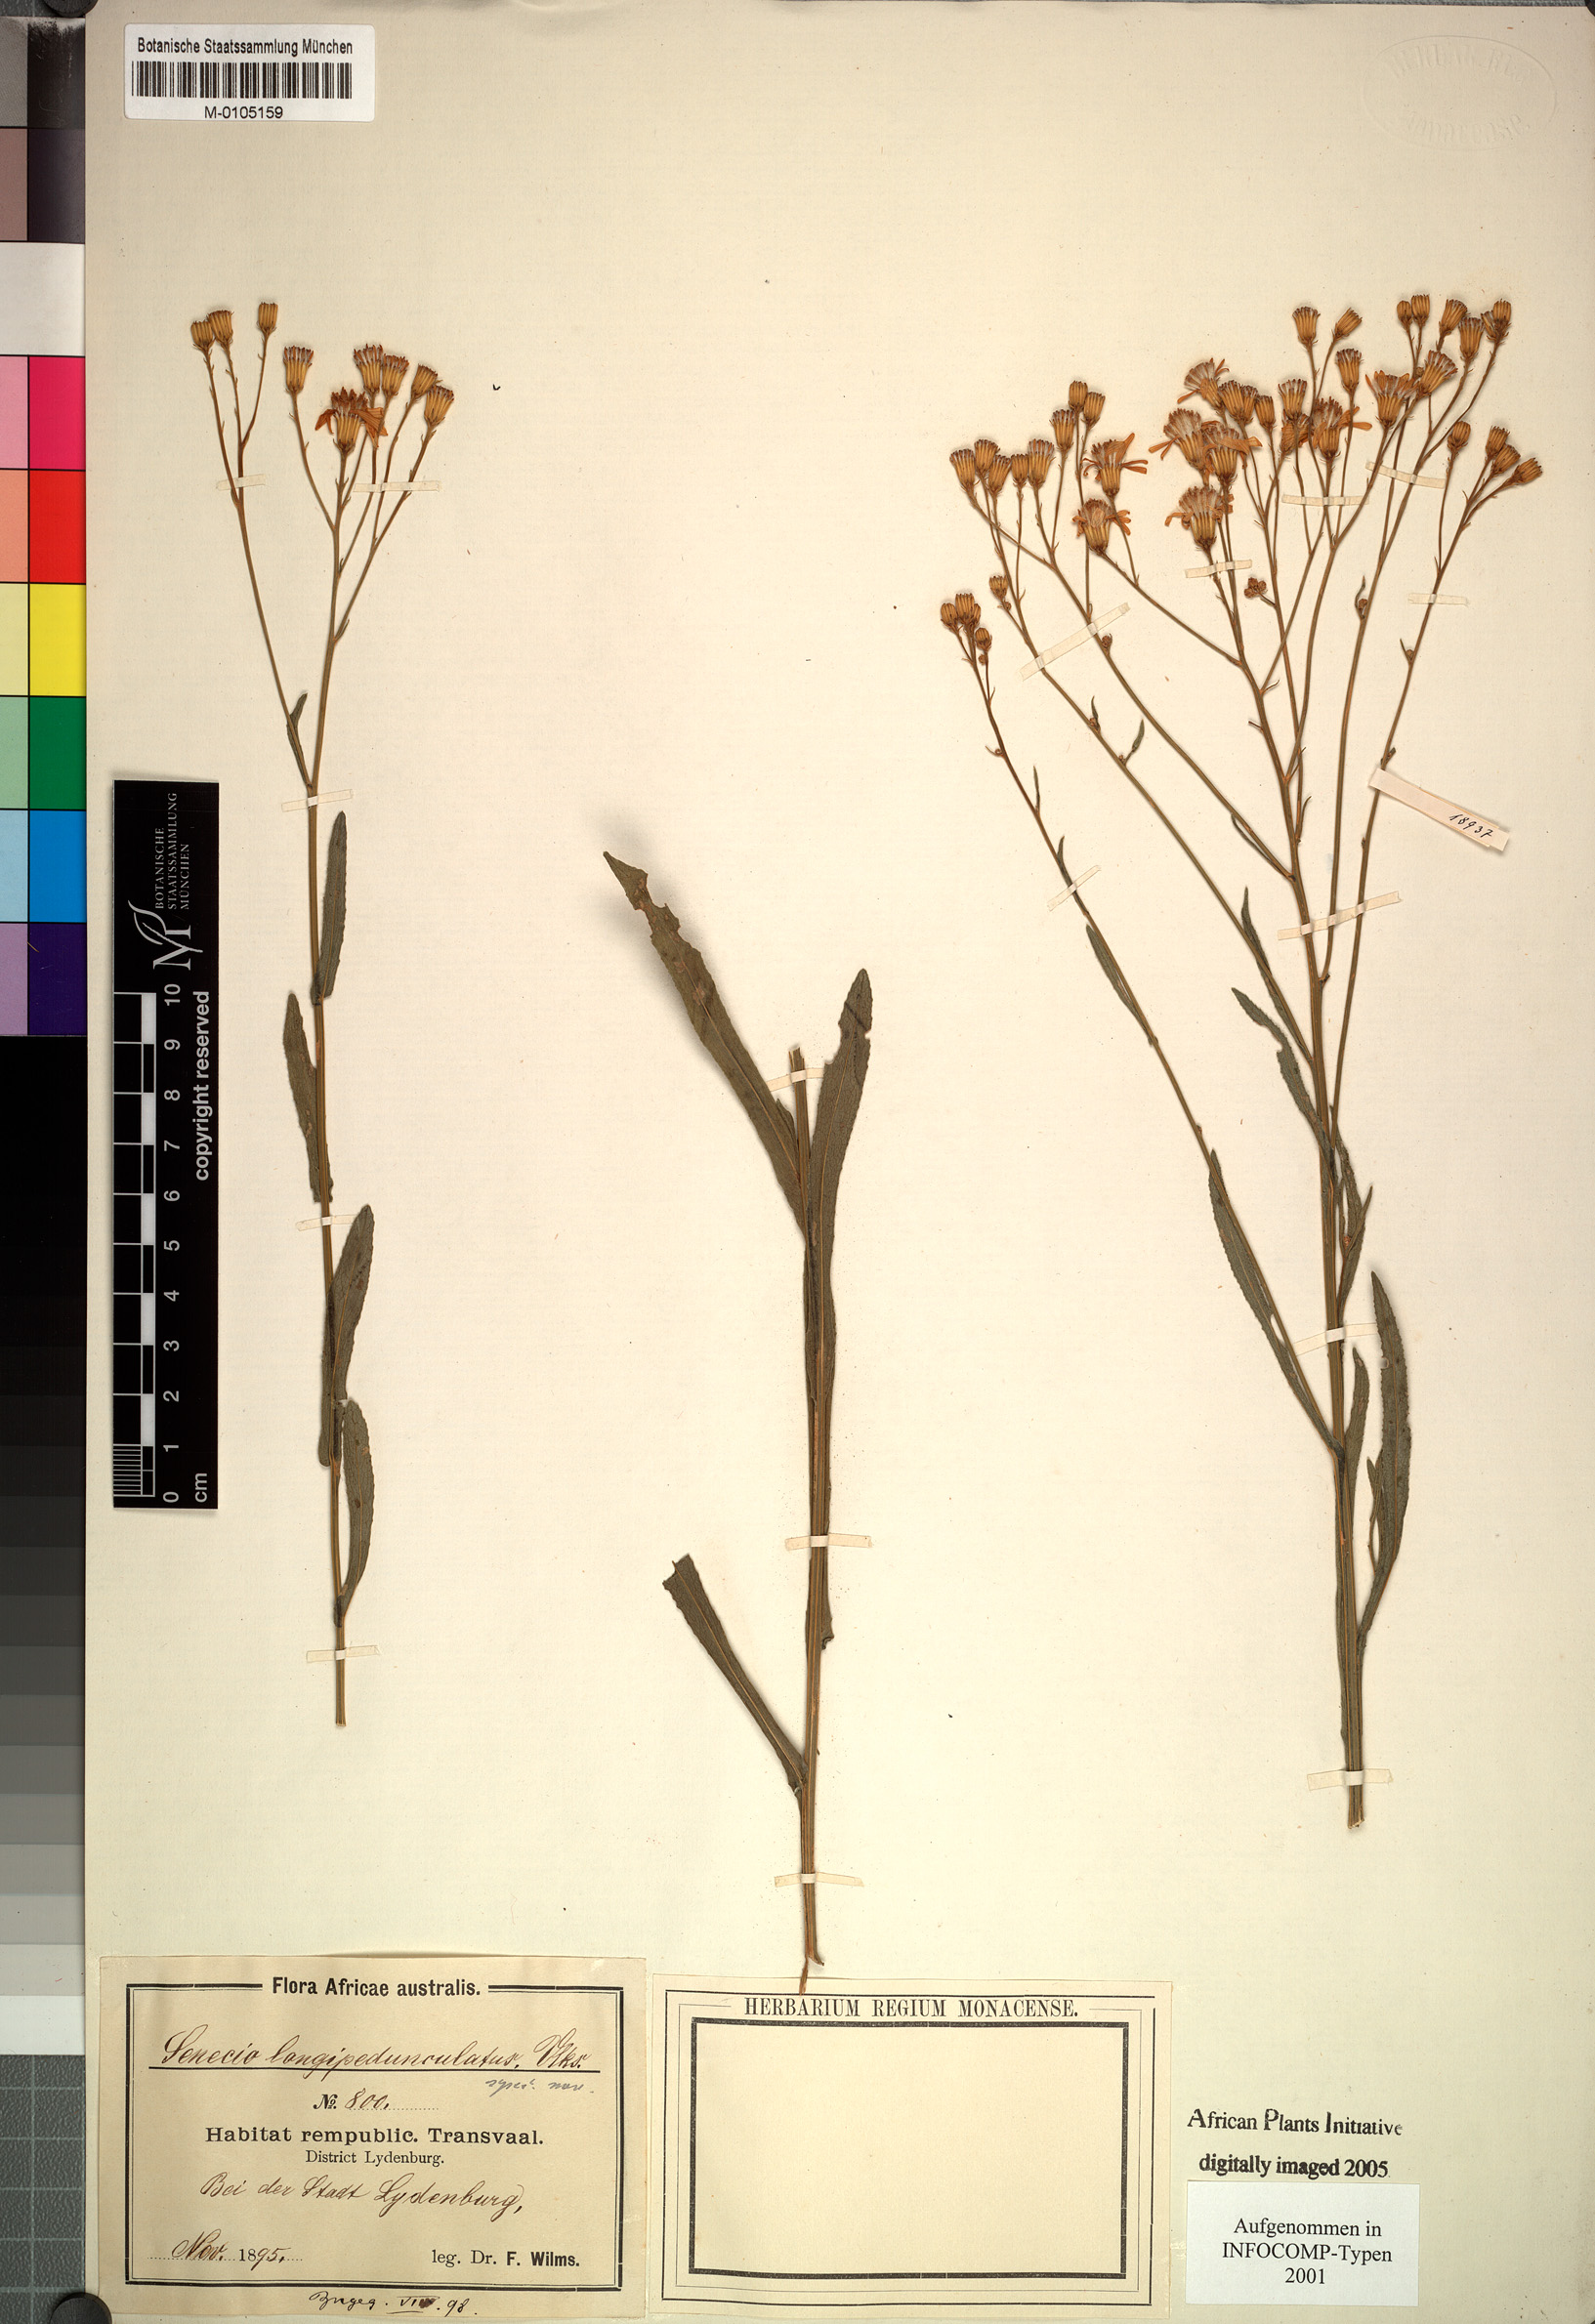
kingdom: Plantae
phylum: Tracheophyta
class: Magnoliopsida
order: Asterales
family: Asteraceae
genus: Senecio
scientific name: Senecio macedonicus
